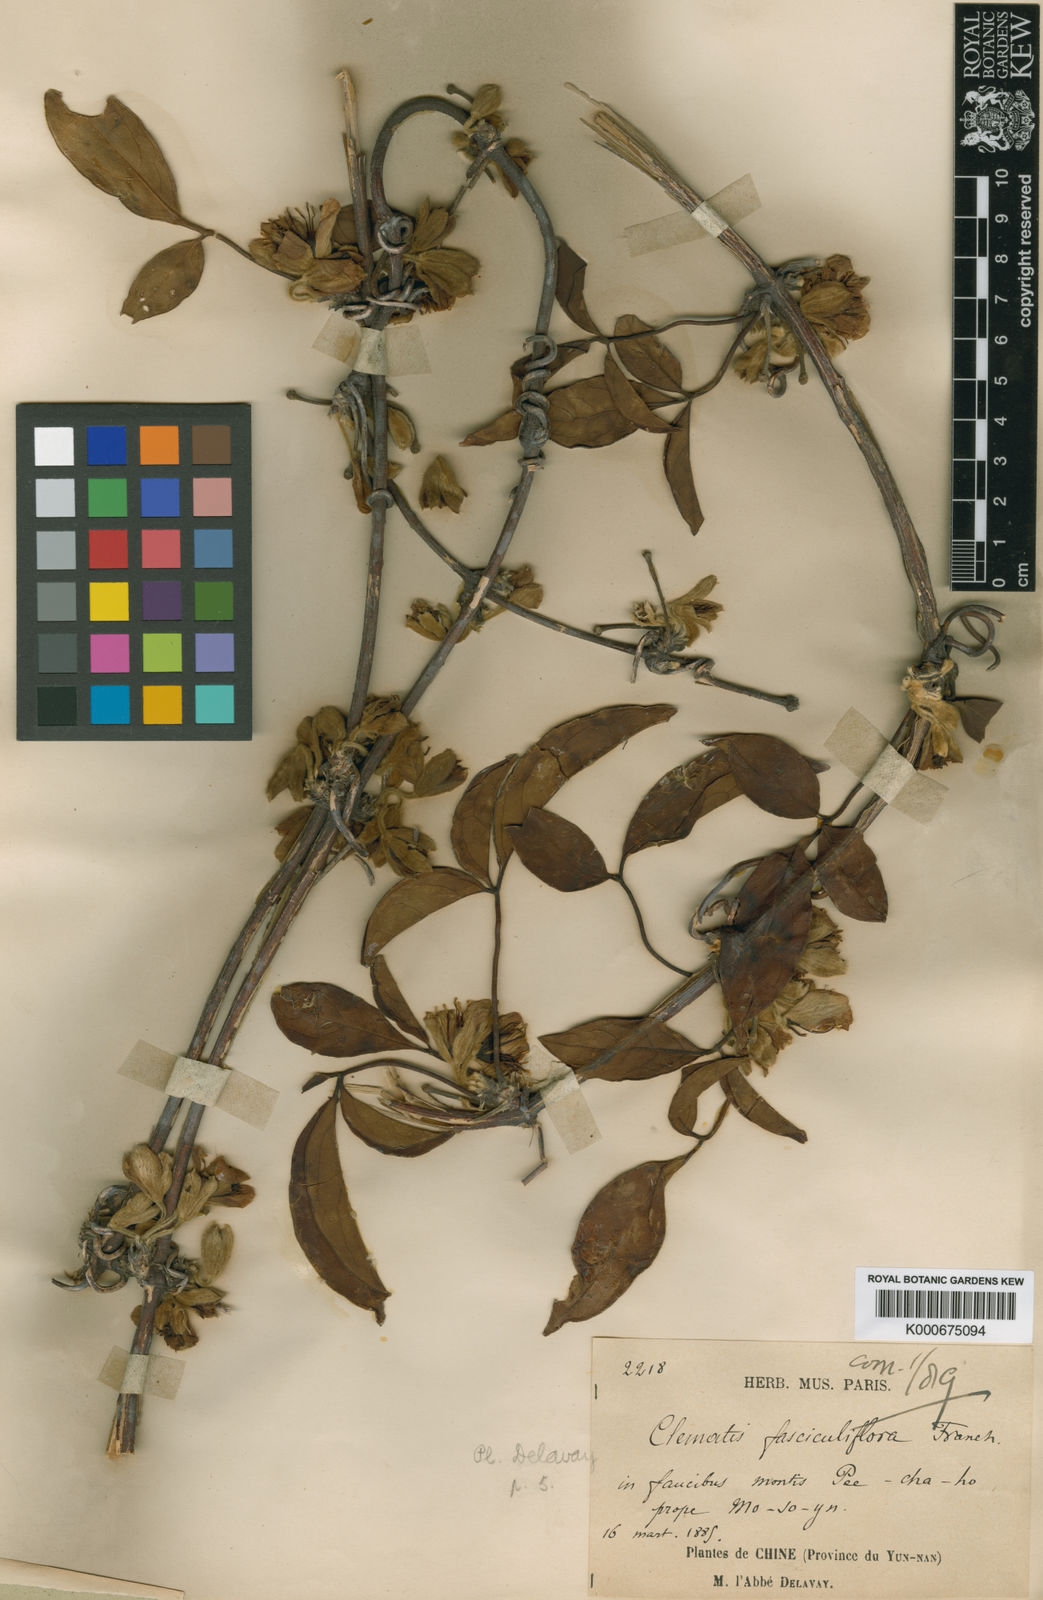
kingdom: Plantae
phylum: Tracheophyta
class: Magnoliopsida
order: Ranunculales
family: Ranunculaceae
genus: Clematis
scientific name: Clematis fasciculiflora
